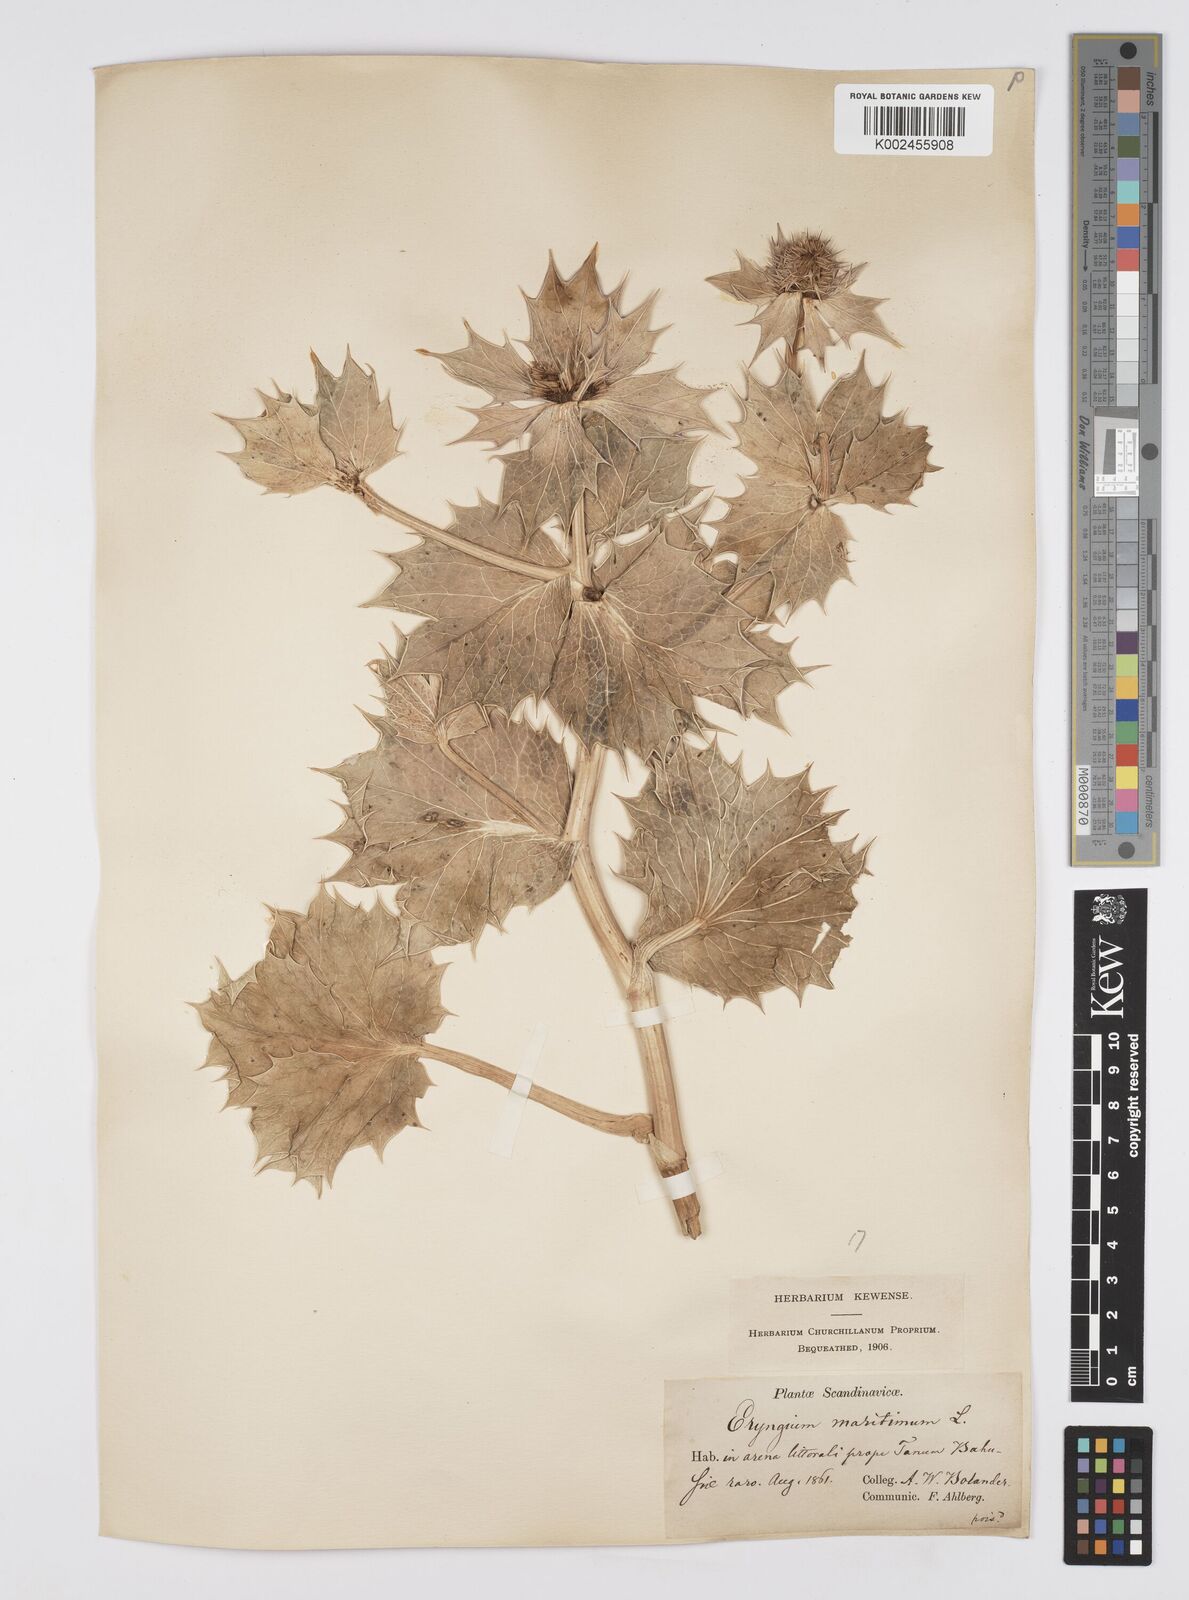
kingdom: Plantae
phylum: Tracheophyta
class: Magnoliopsida
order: Apiales
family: Apiaceae
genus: Eryngium
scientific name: Eryngium maritimum
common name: Sea-holly
